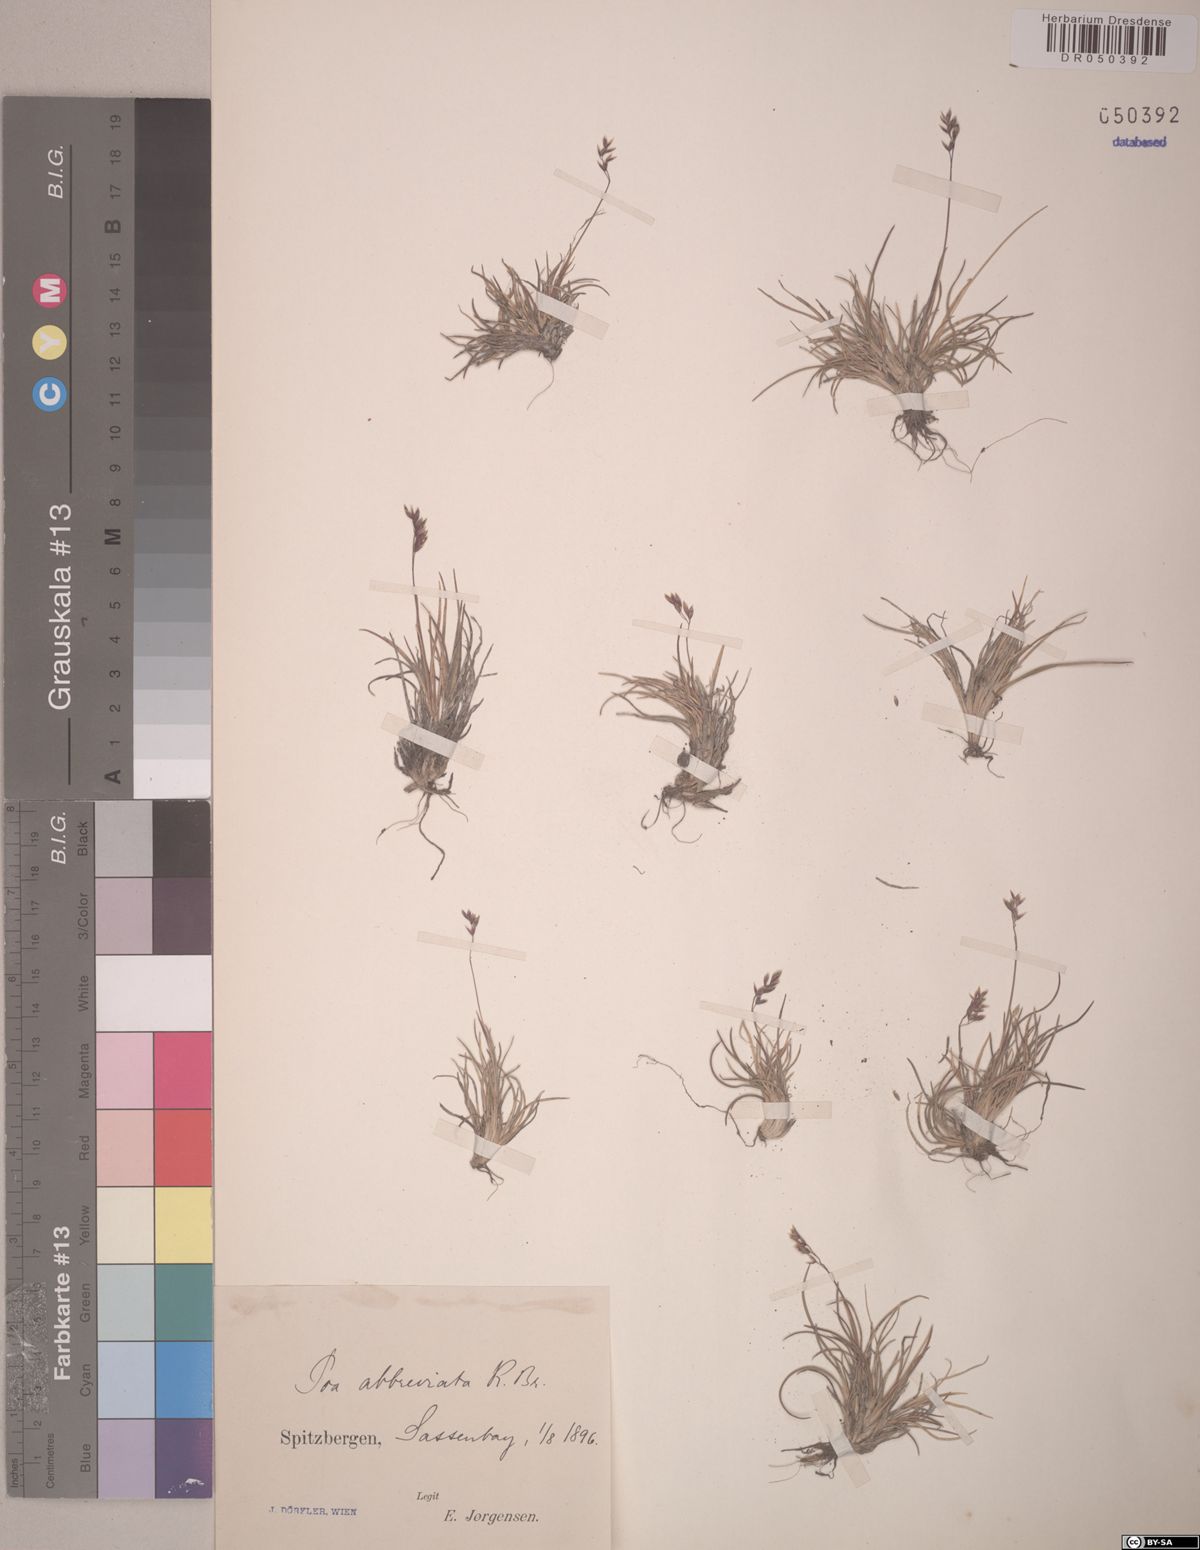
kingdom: Plantae
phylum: Tracheophyta
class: Liliopsida
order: Poales
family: Poaceae
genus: Poa
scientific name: Poa abbreviata
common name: Abbreviated bluegrass
